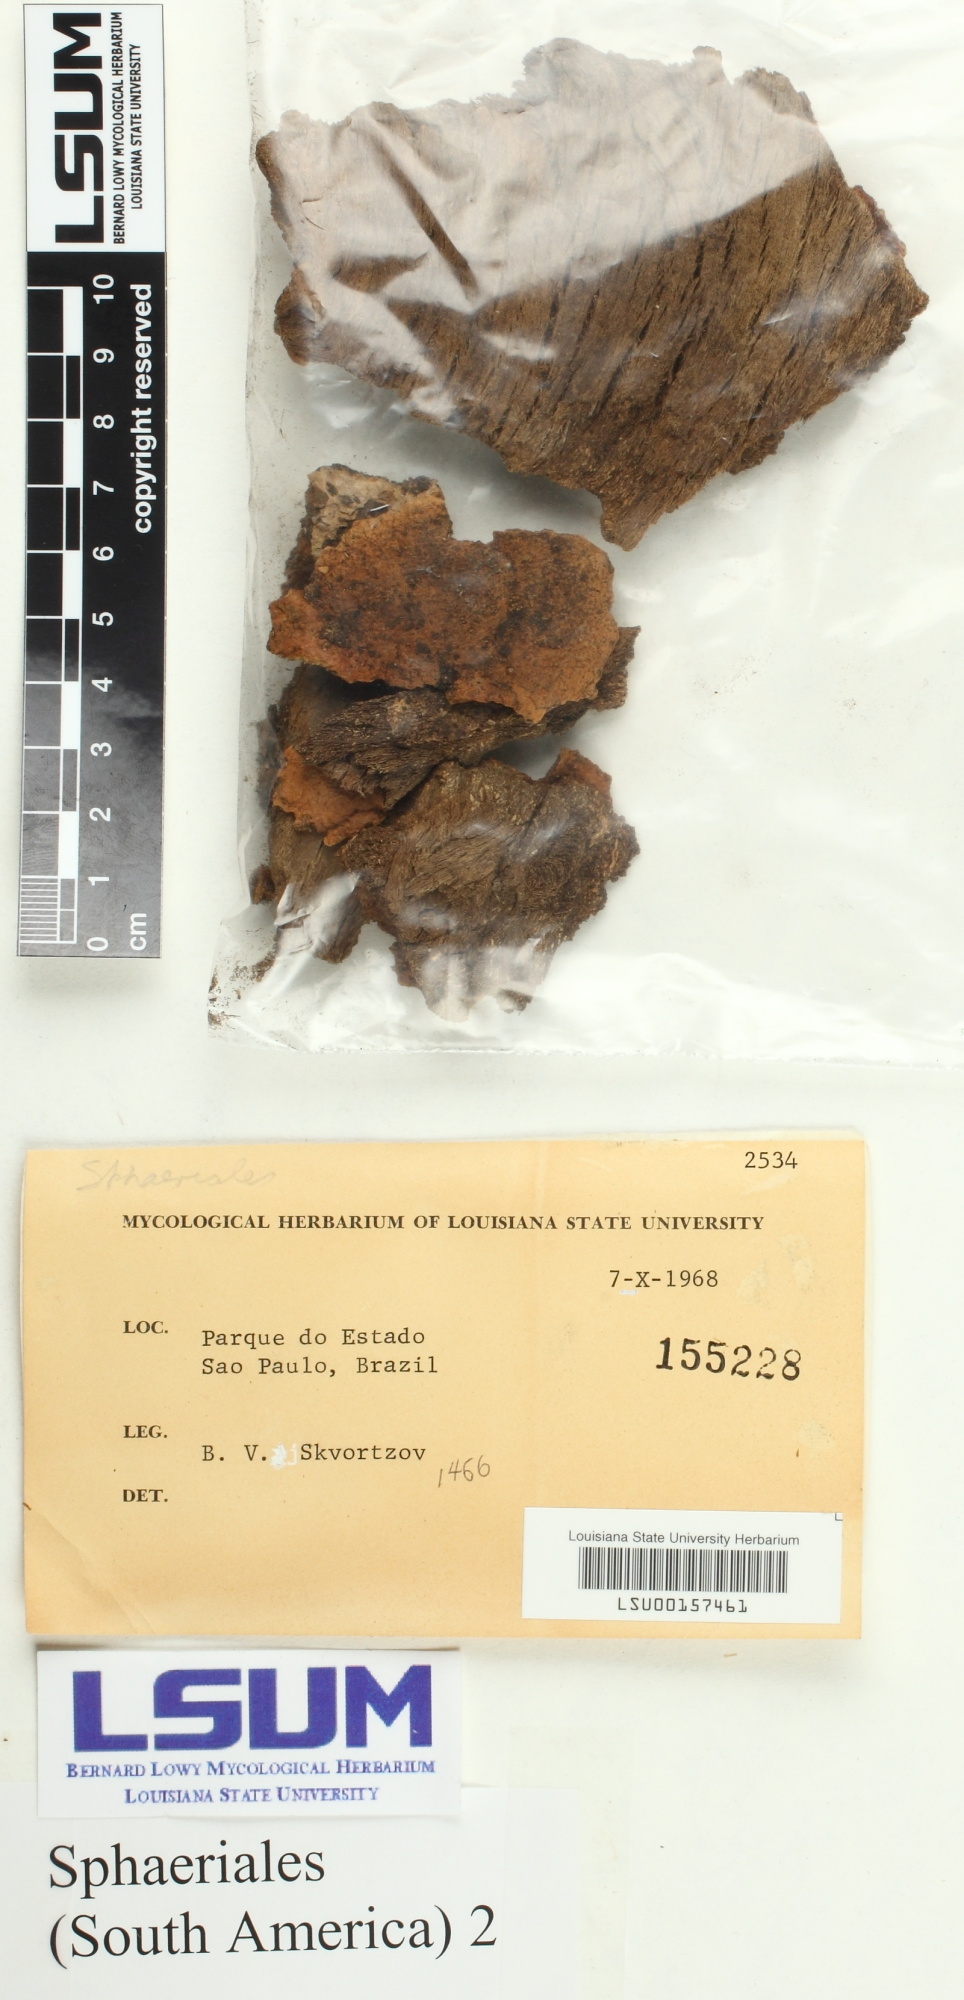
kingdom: Fungi
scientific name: Fungi
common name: Fungi
